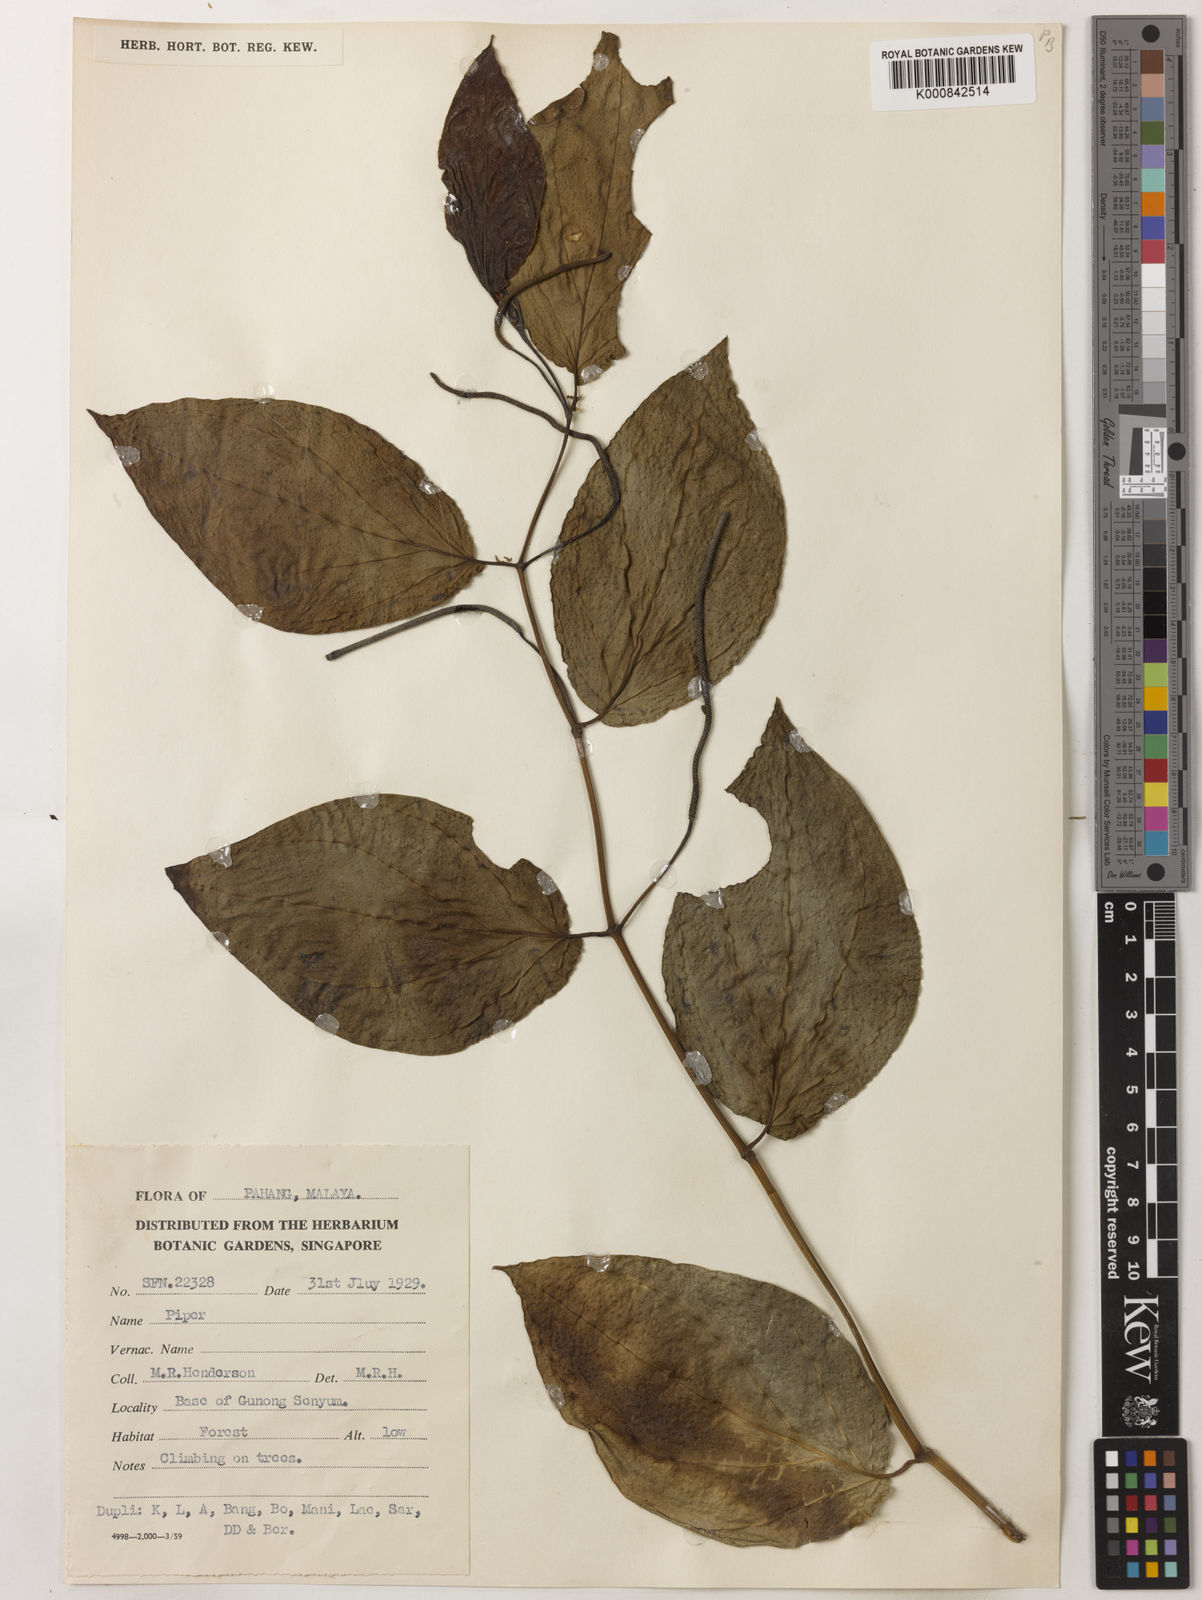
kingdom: Plantae
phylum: Tracheophyta
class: Magnoliopsida
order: Piperales
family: Piperaceae
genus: Piper
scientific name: Piper
